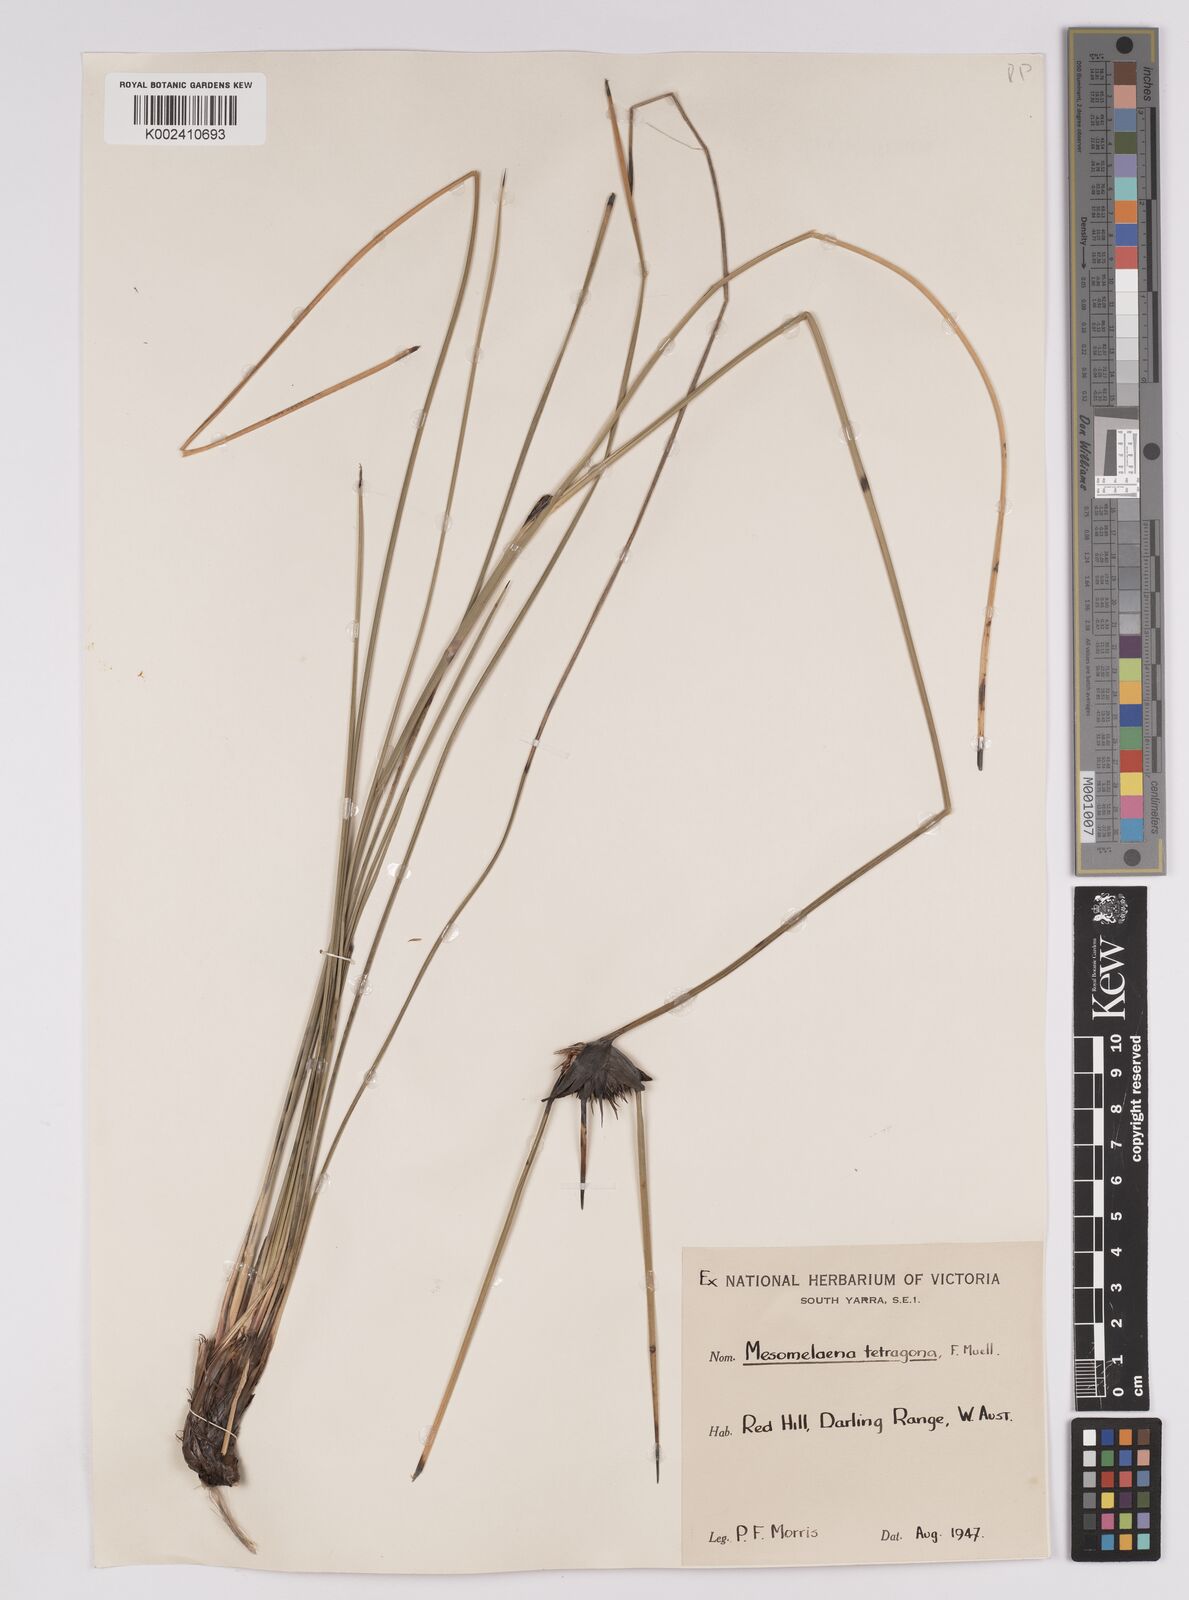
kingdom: Plantae
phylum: Tracheophyta
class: Liliopsida
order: Poales
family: Cyperaceae
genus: Mesomelaena
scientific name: Mesomelaena tetragona
